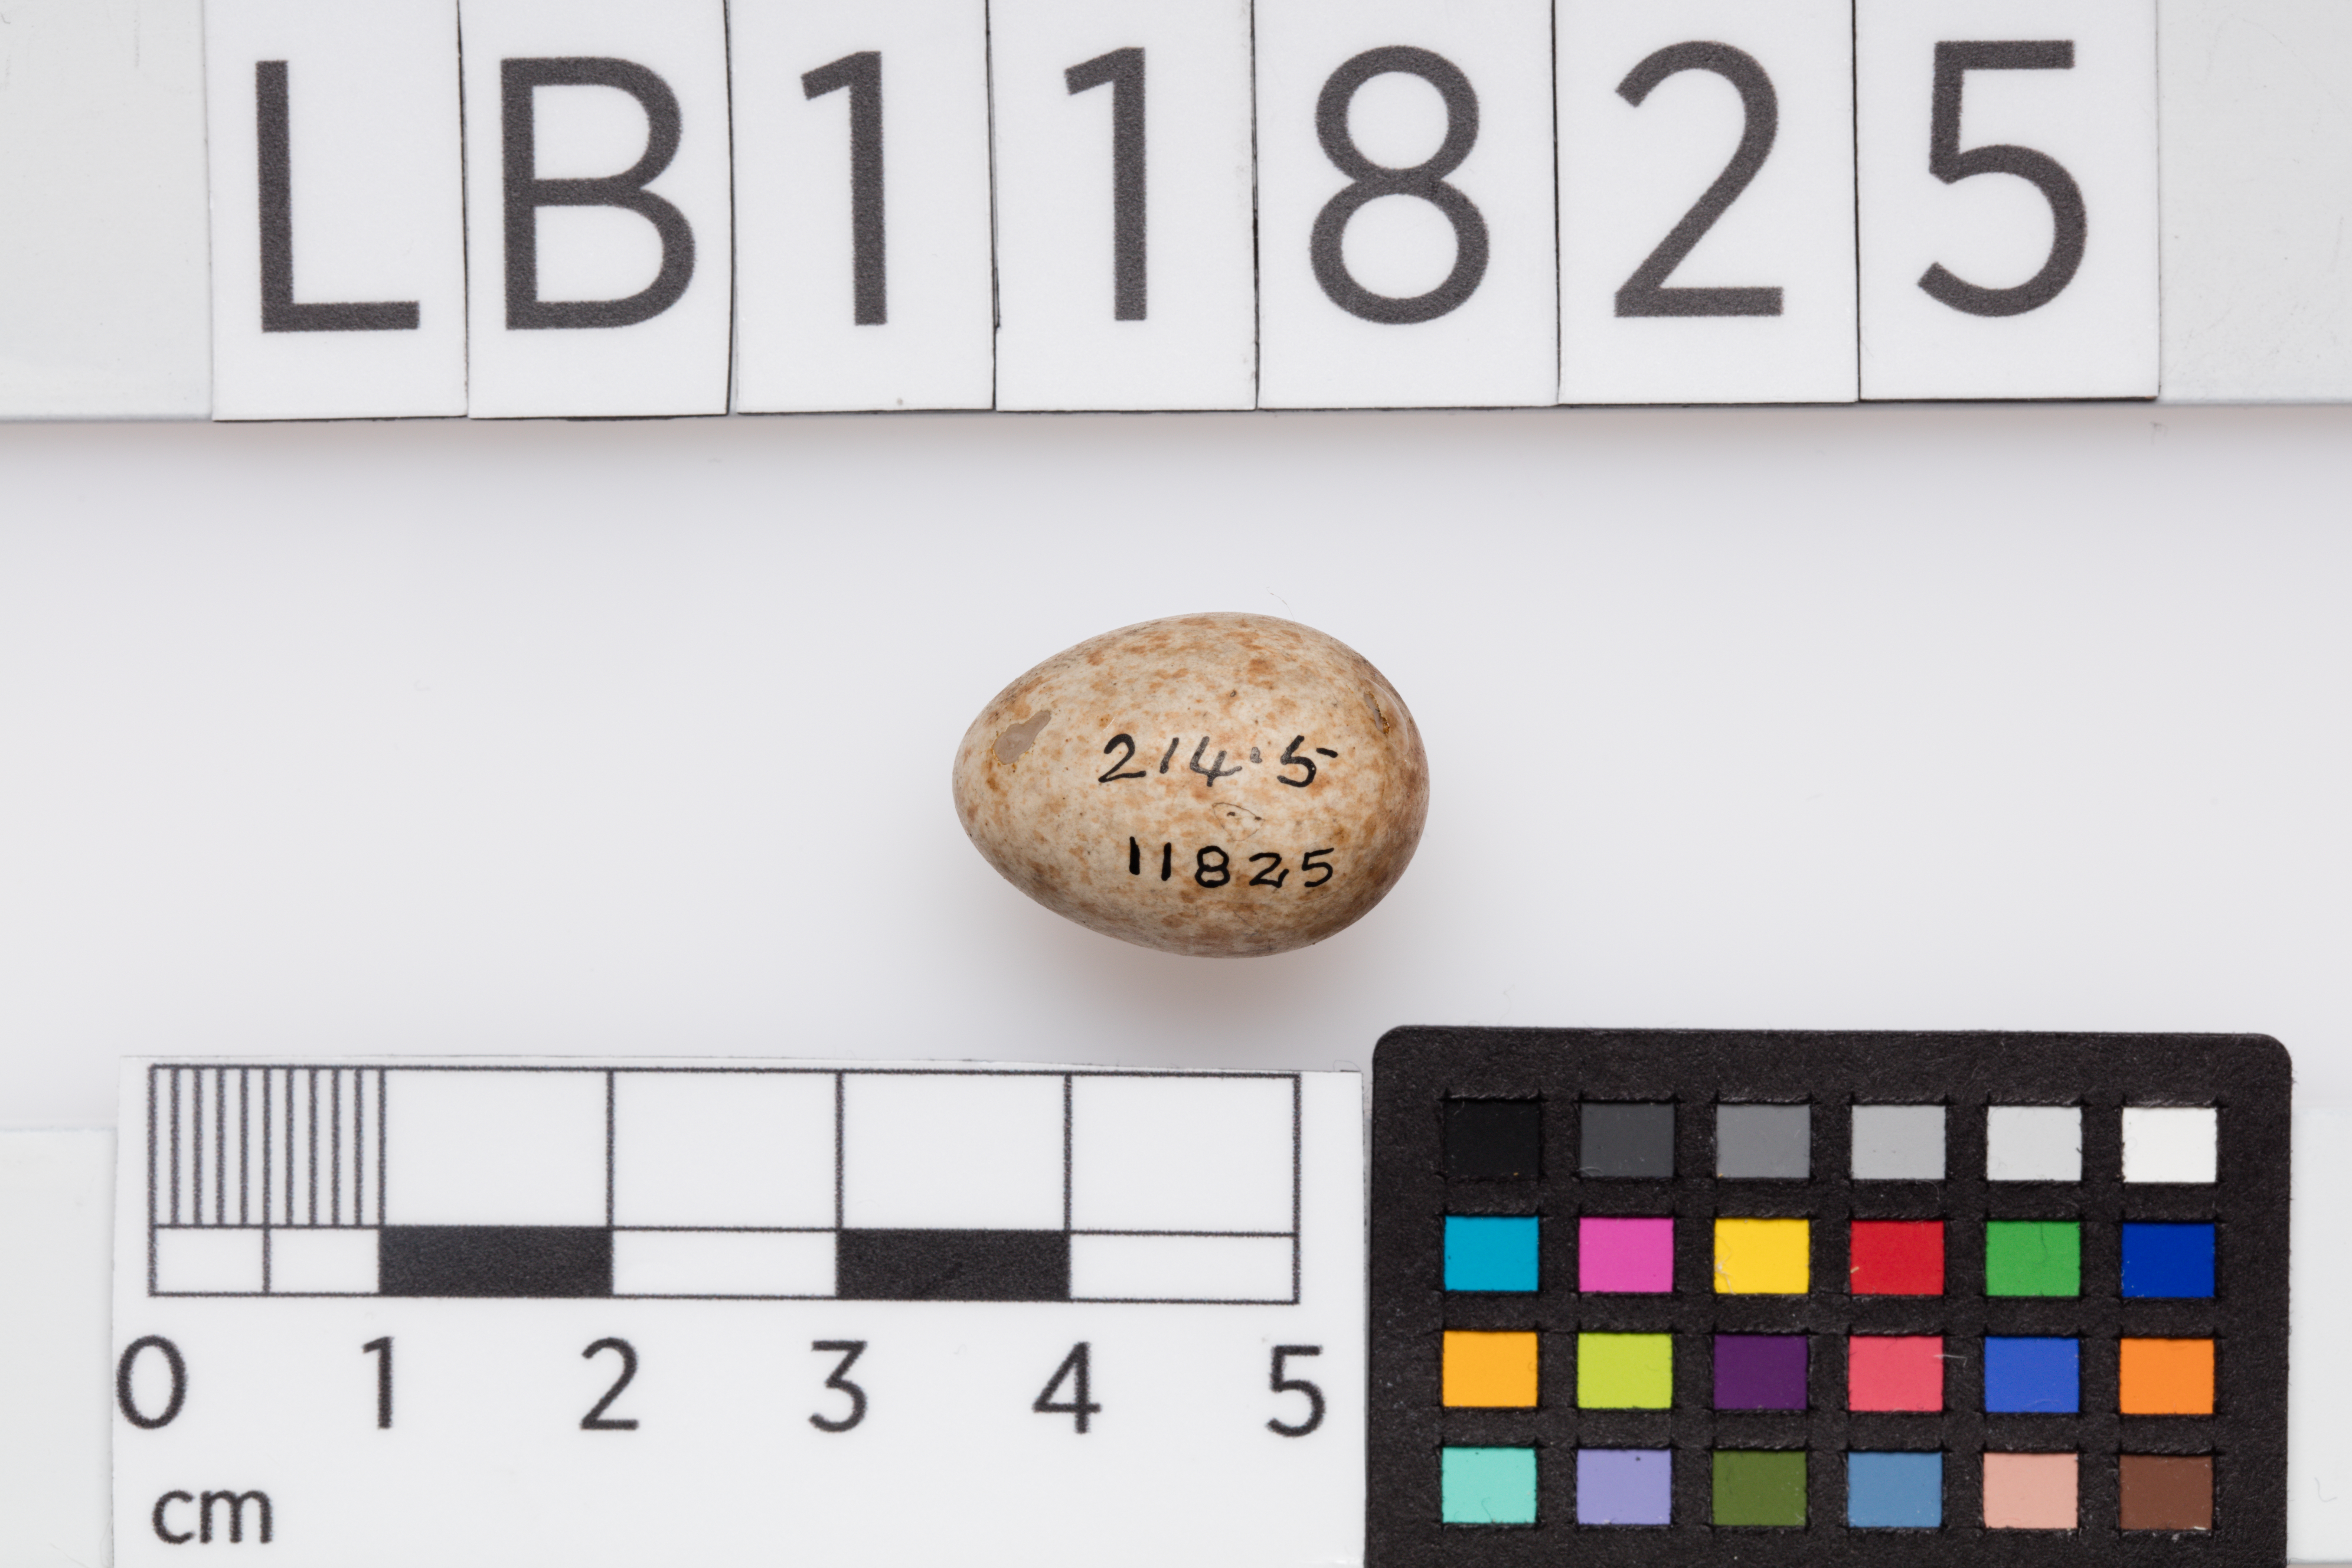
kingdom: Animalia
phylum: Chordata
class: Aves
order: Passeriformes
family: Muscicapidae
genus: Erithacus
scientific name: Erithacus rubecula
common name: European robin
